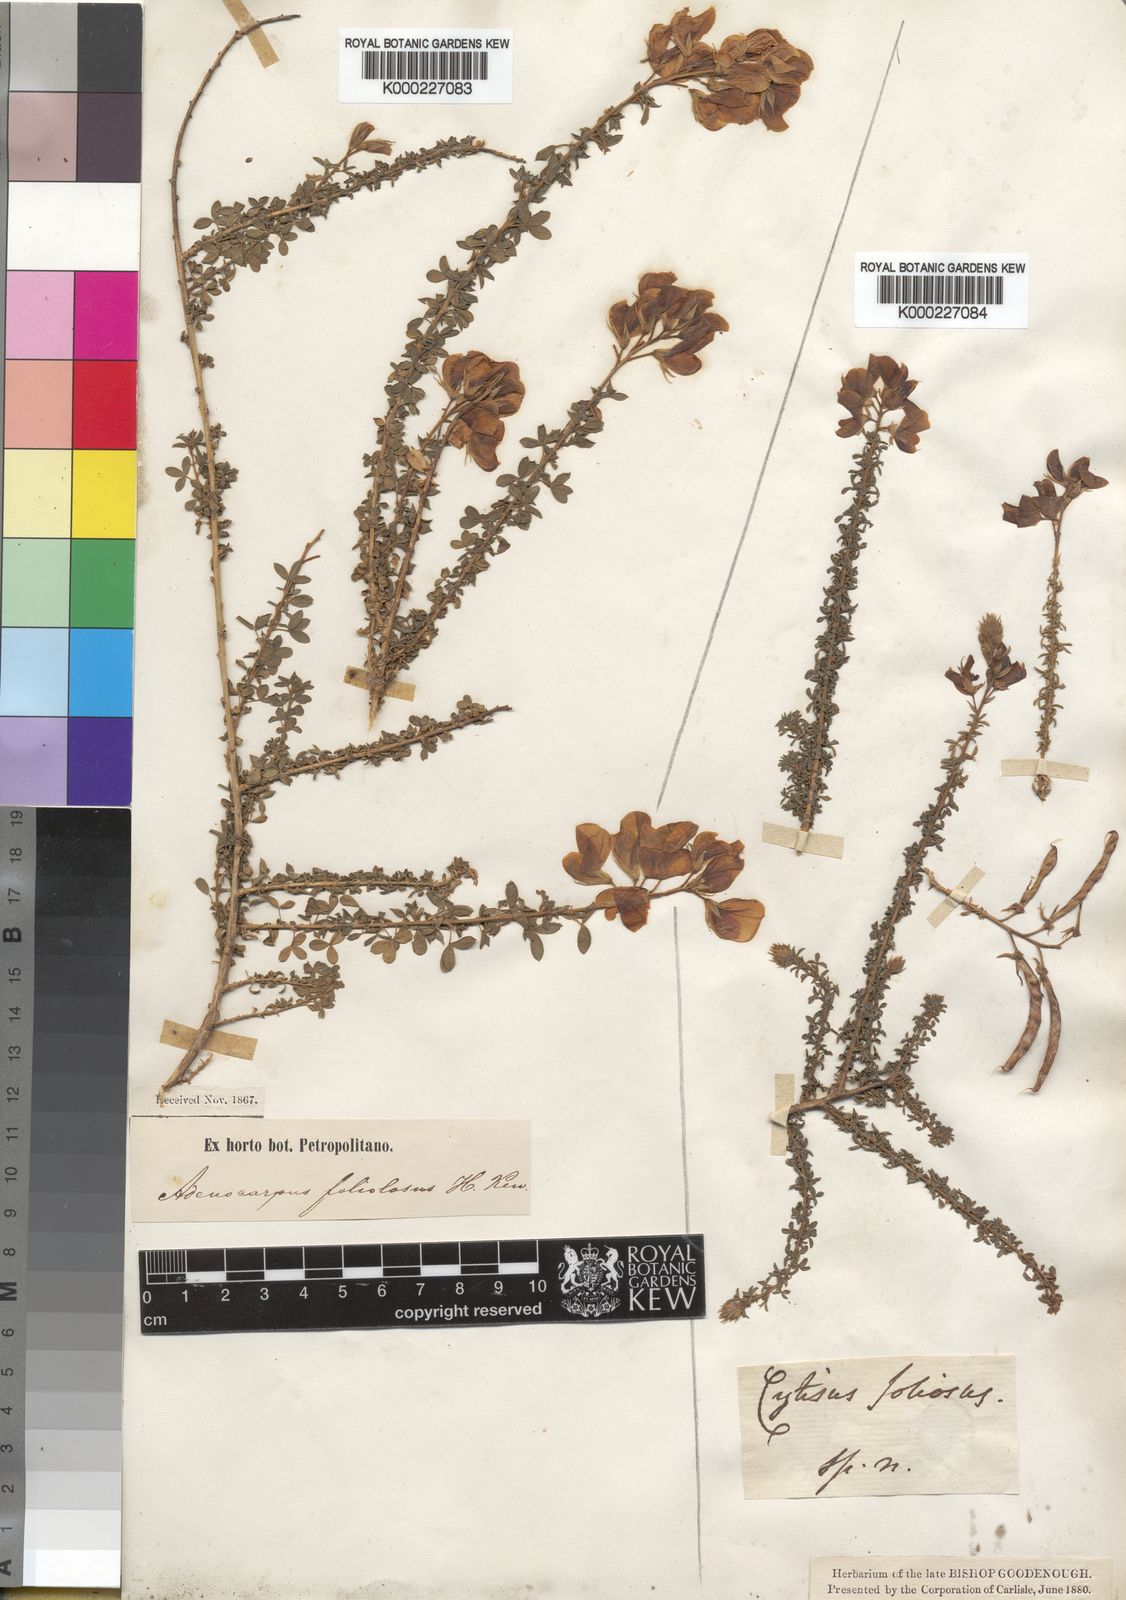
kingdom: Plantae
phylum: Tracheophyta
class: Magnoliopsida
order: Fabales
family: Fabaceae
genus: Adenocarpus
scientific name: Adenocarpus foliolosus
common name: Canary island flatpod
